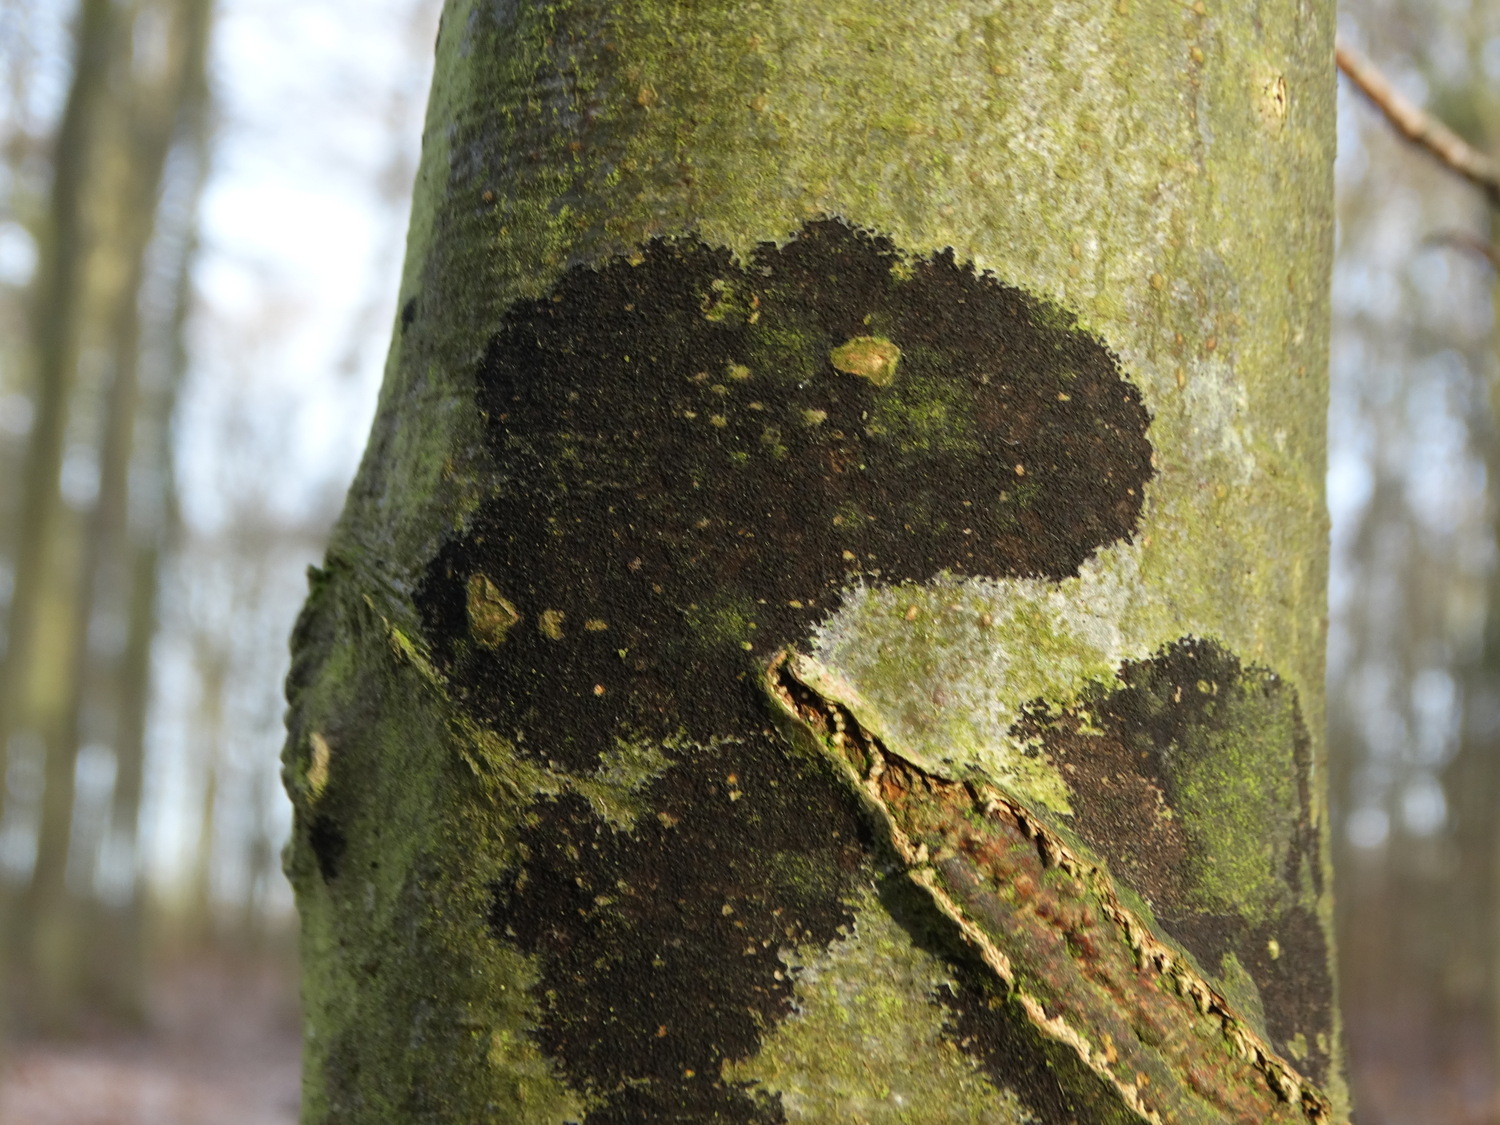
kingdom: Fungi
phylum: Ascomycota
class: Leotiomycetes
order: Rhytismatales
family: Ascodichaenaceae
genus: Ascodichaena
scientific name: Ascodichaena rugosa
